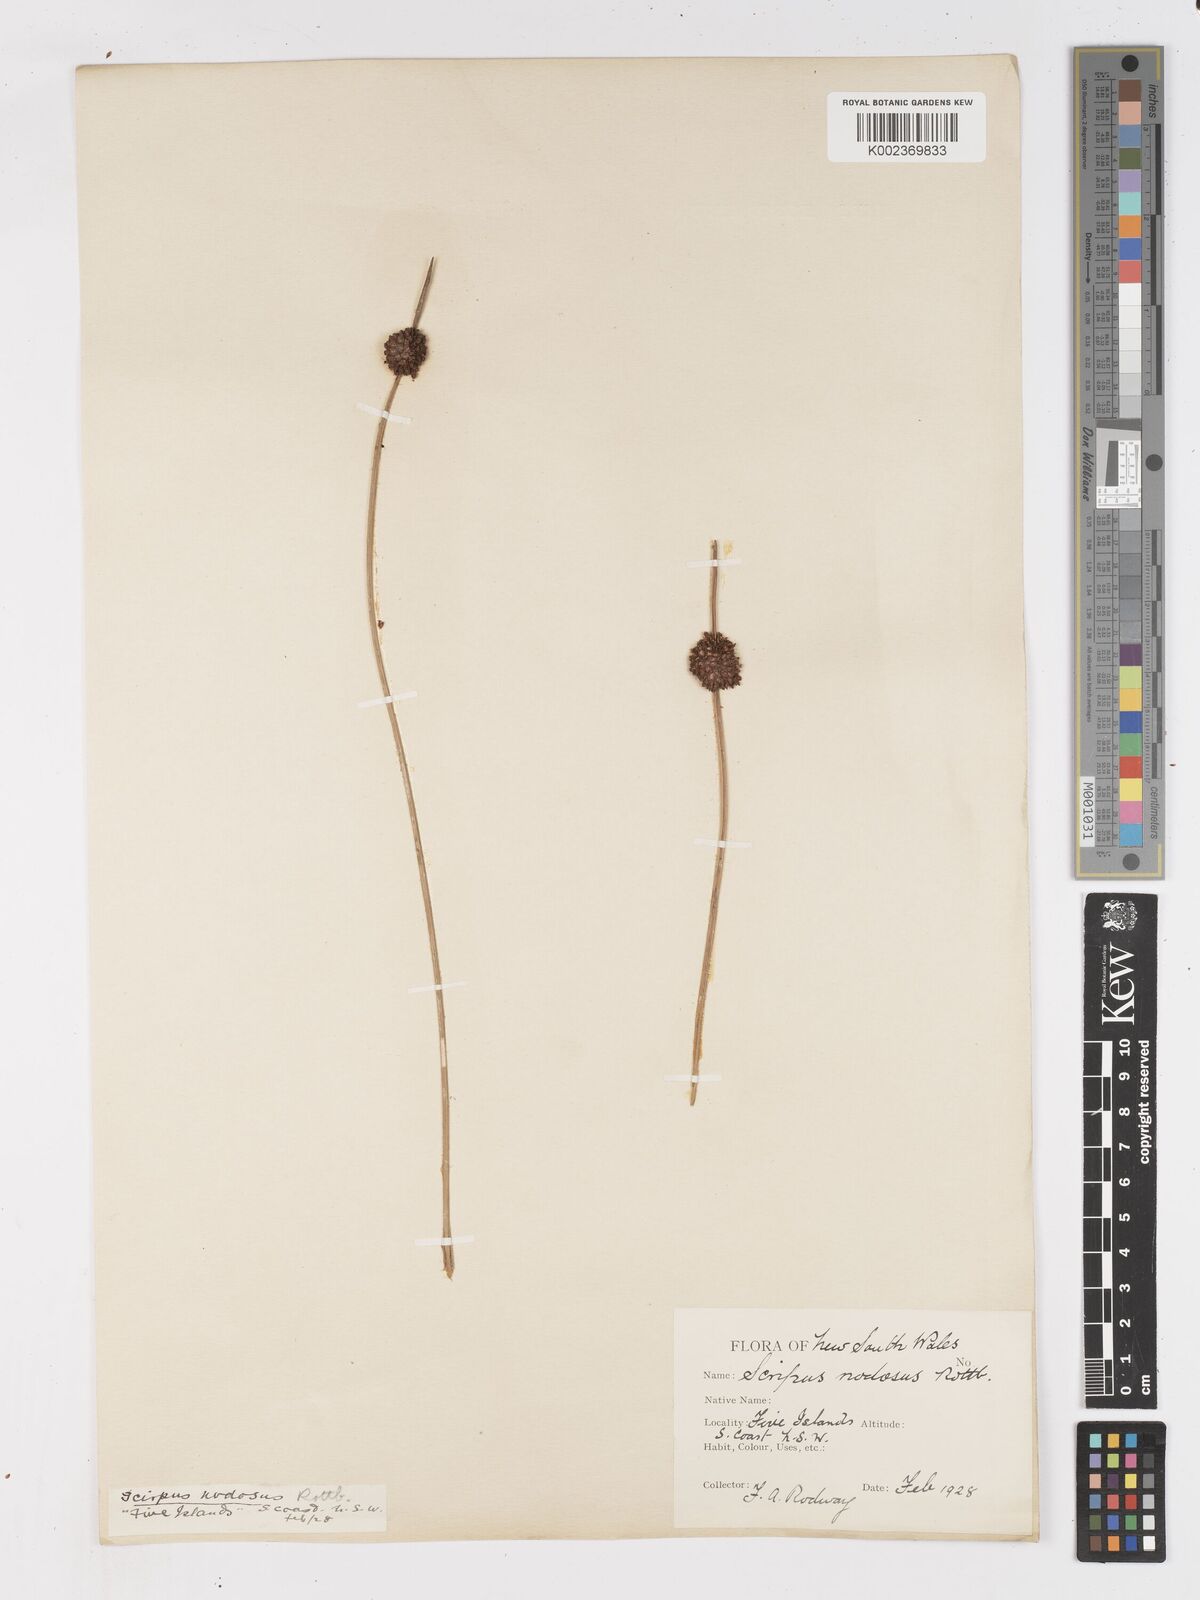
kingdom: Plantae
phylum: Tracheophyta
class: Liliopsida
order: Poales
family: Cyperaceae
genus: Ficinia
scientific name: Ficinia nodosa
